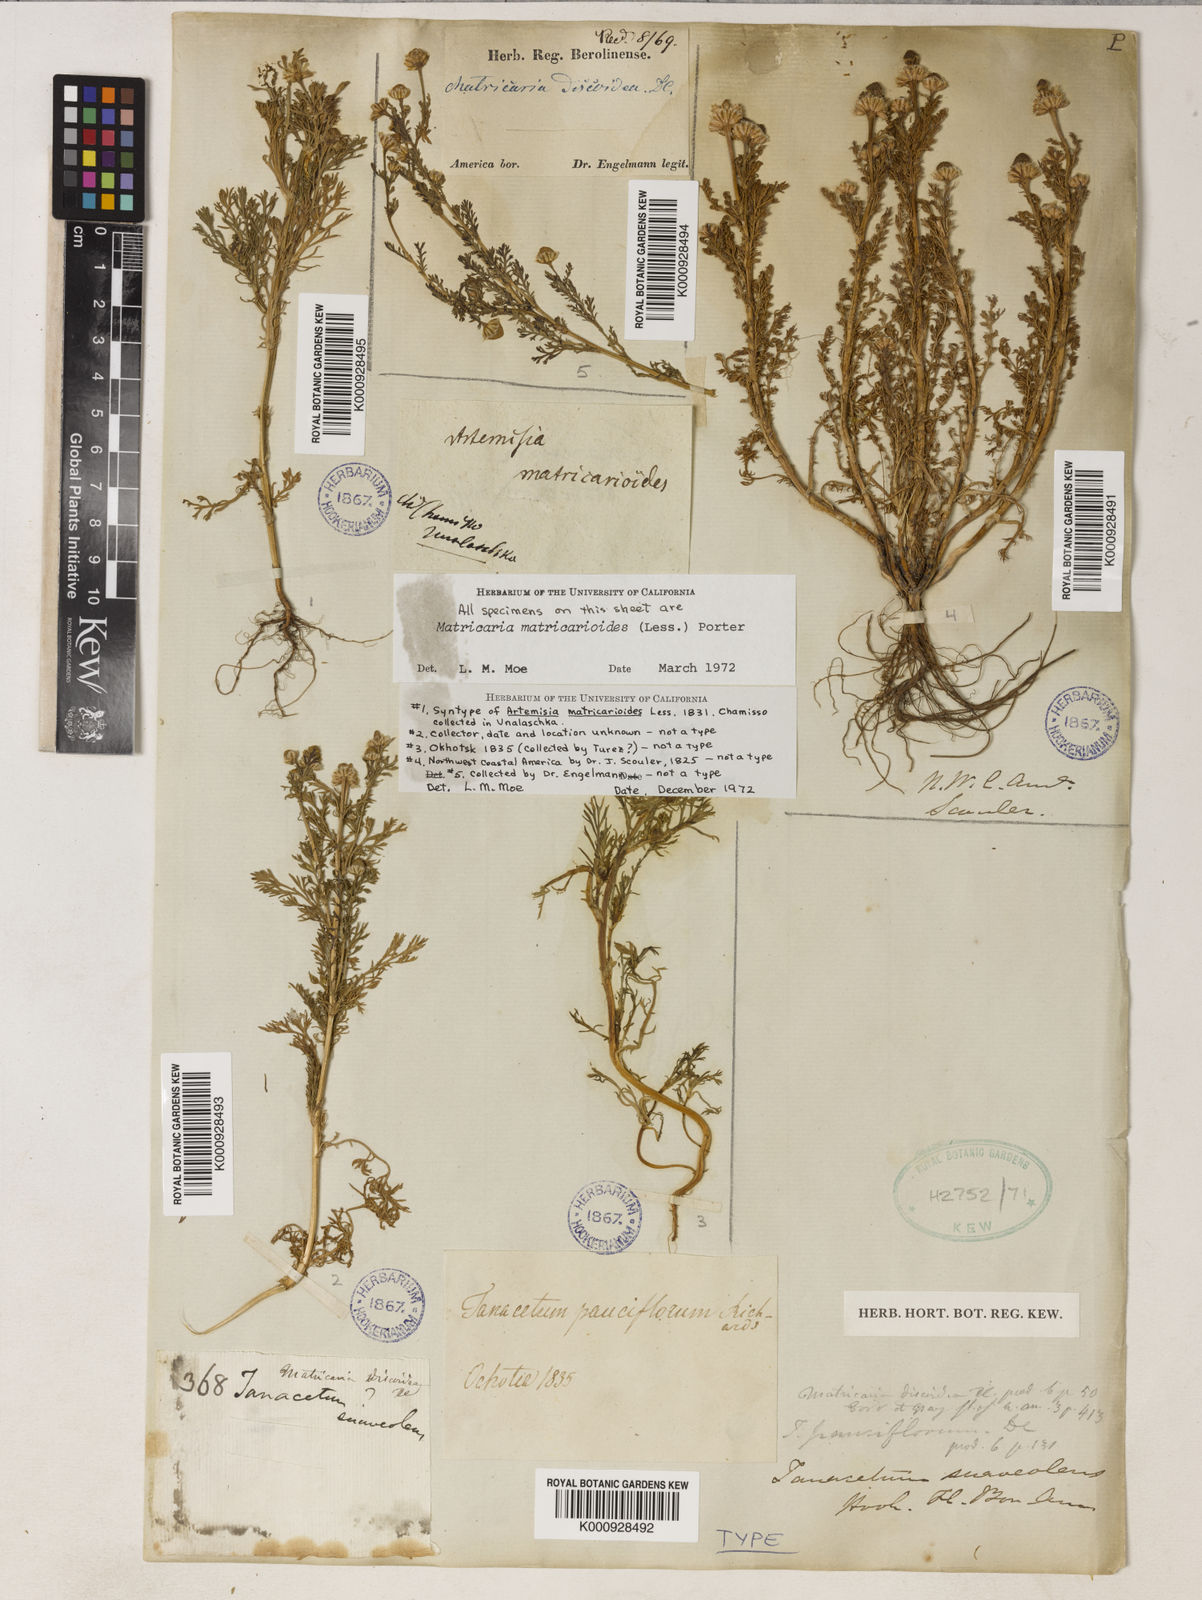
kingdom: Plantae
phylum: Tracheophyta
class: Magnoliopsida
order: Asterales
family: Asteraceae
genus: Matricaria
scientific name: Matricaria
